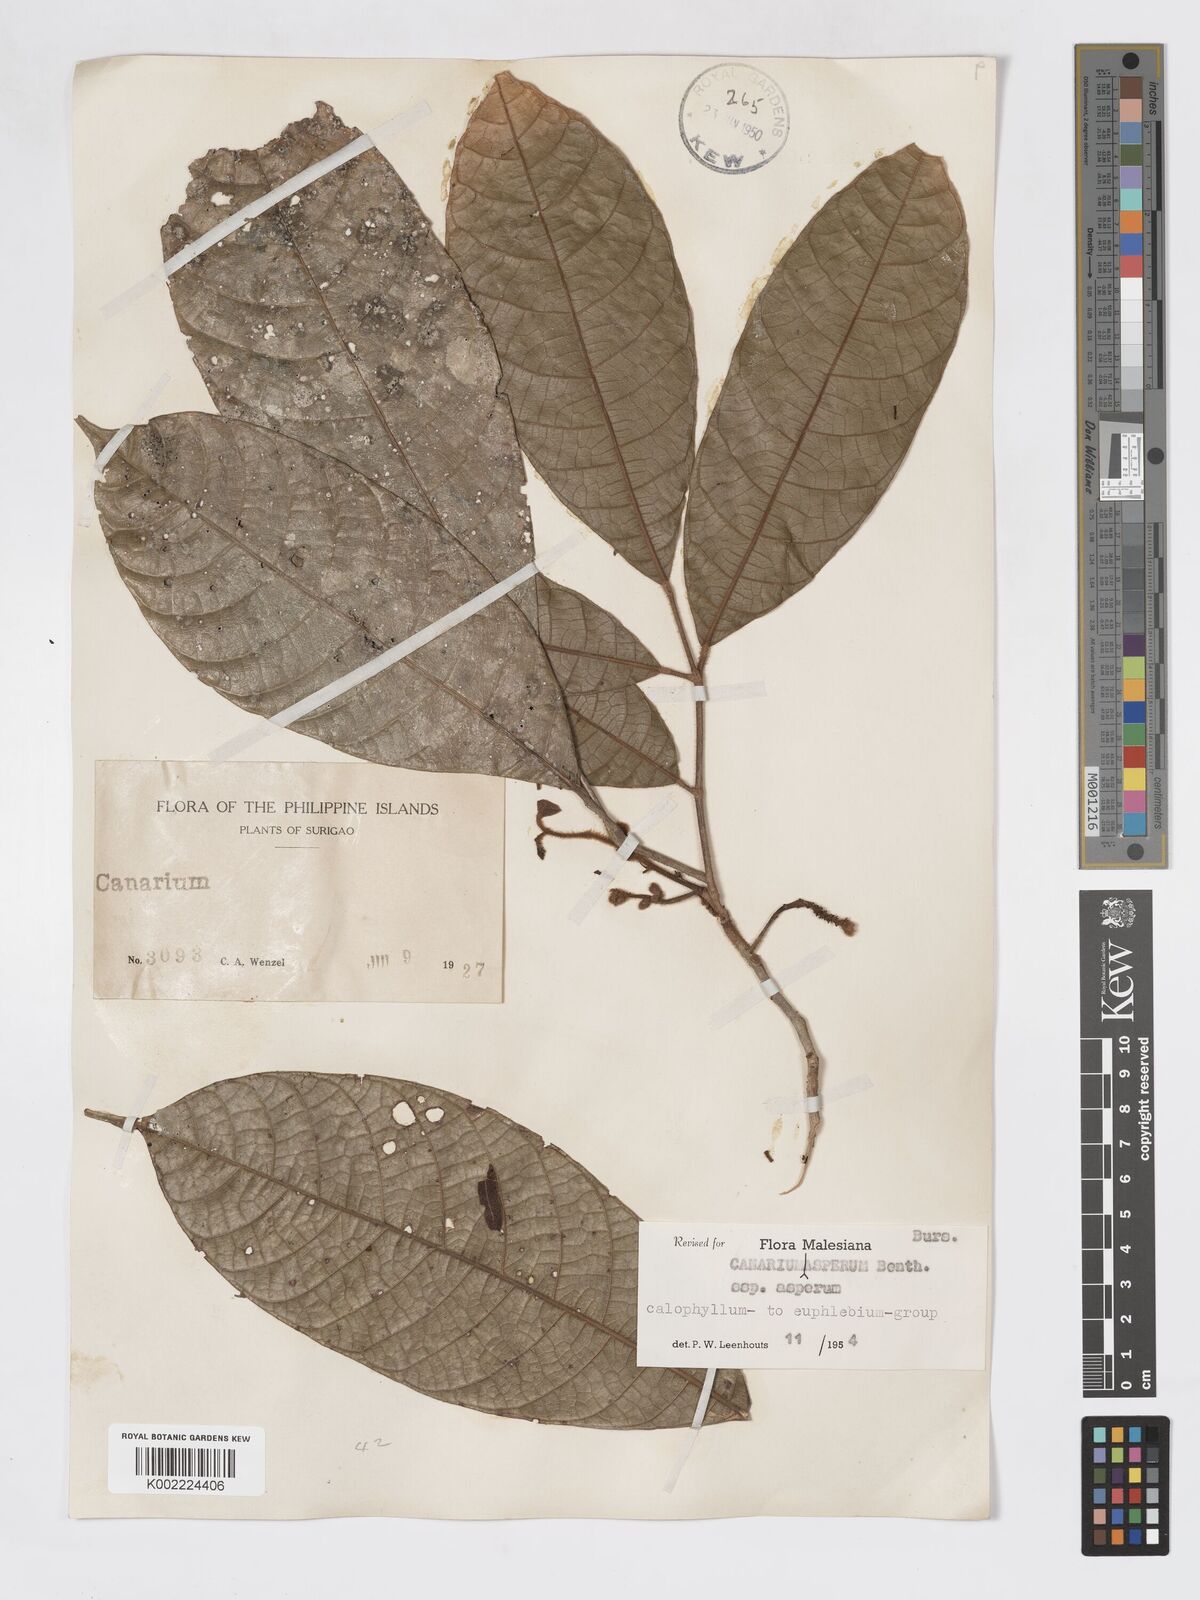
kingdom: Plantae
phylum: Tracheophyta
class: Magnoliopsida
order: Sapindales
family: Burseraceae
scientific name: Burseraceae
